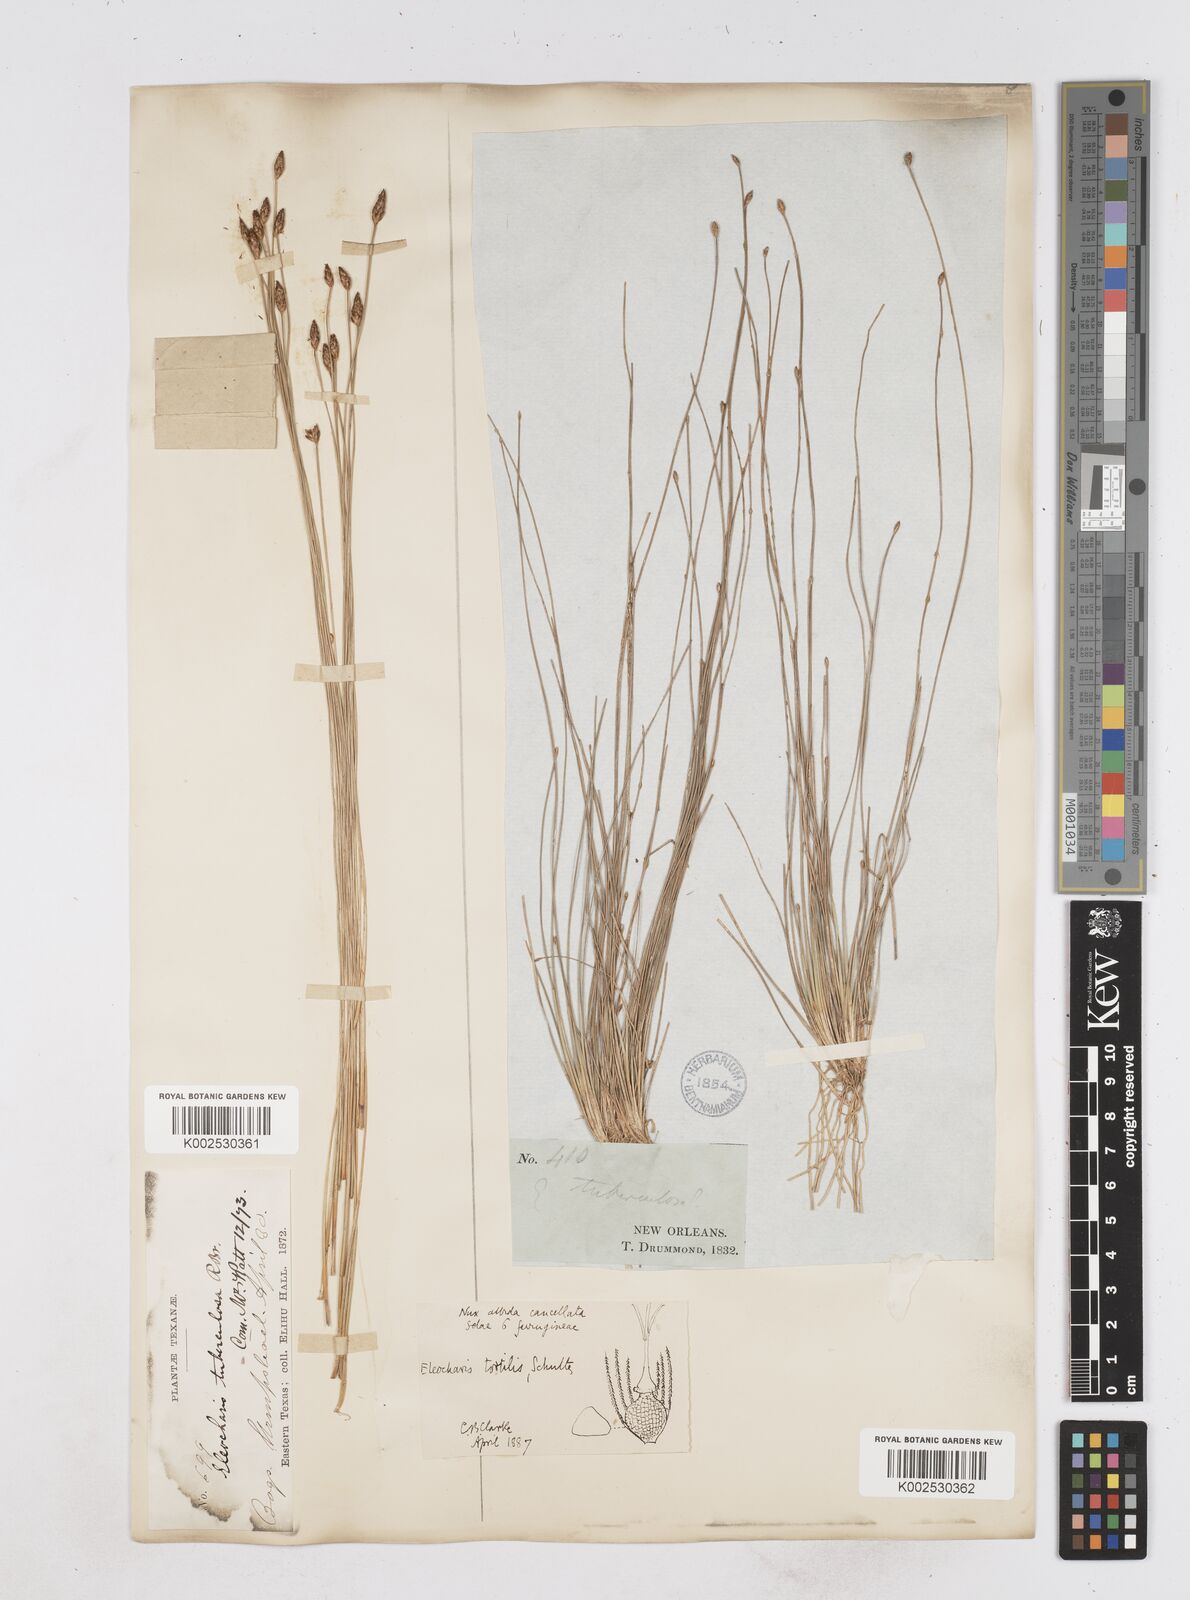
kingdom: Plantae
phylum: Tracheophyta
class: Liliopsida
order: Poales
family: Cyperaceae
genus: Eleocharis
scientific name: Eleocharis tuberculosa
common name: Cone-cup spikerush
